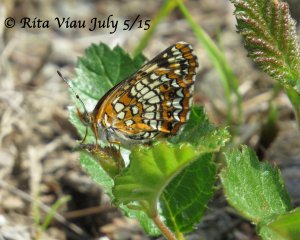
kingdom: Animalia
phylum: Arthropoda
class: Insecta
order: Lepidoptera
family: Nymphalidae
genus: Chlosyne
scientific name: Chlosyne harrisii
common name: Harris's Checkerspot
